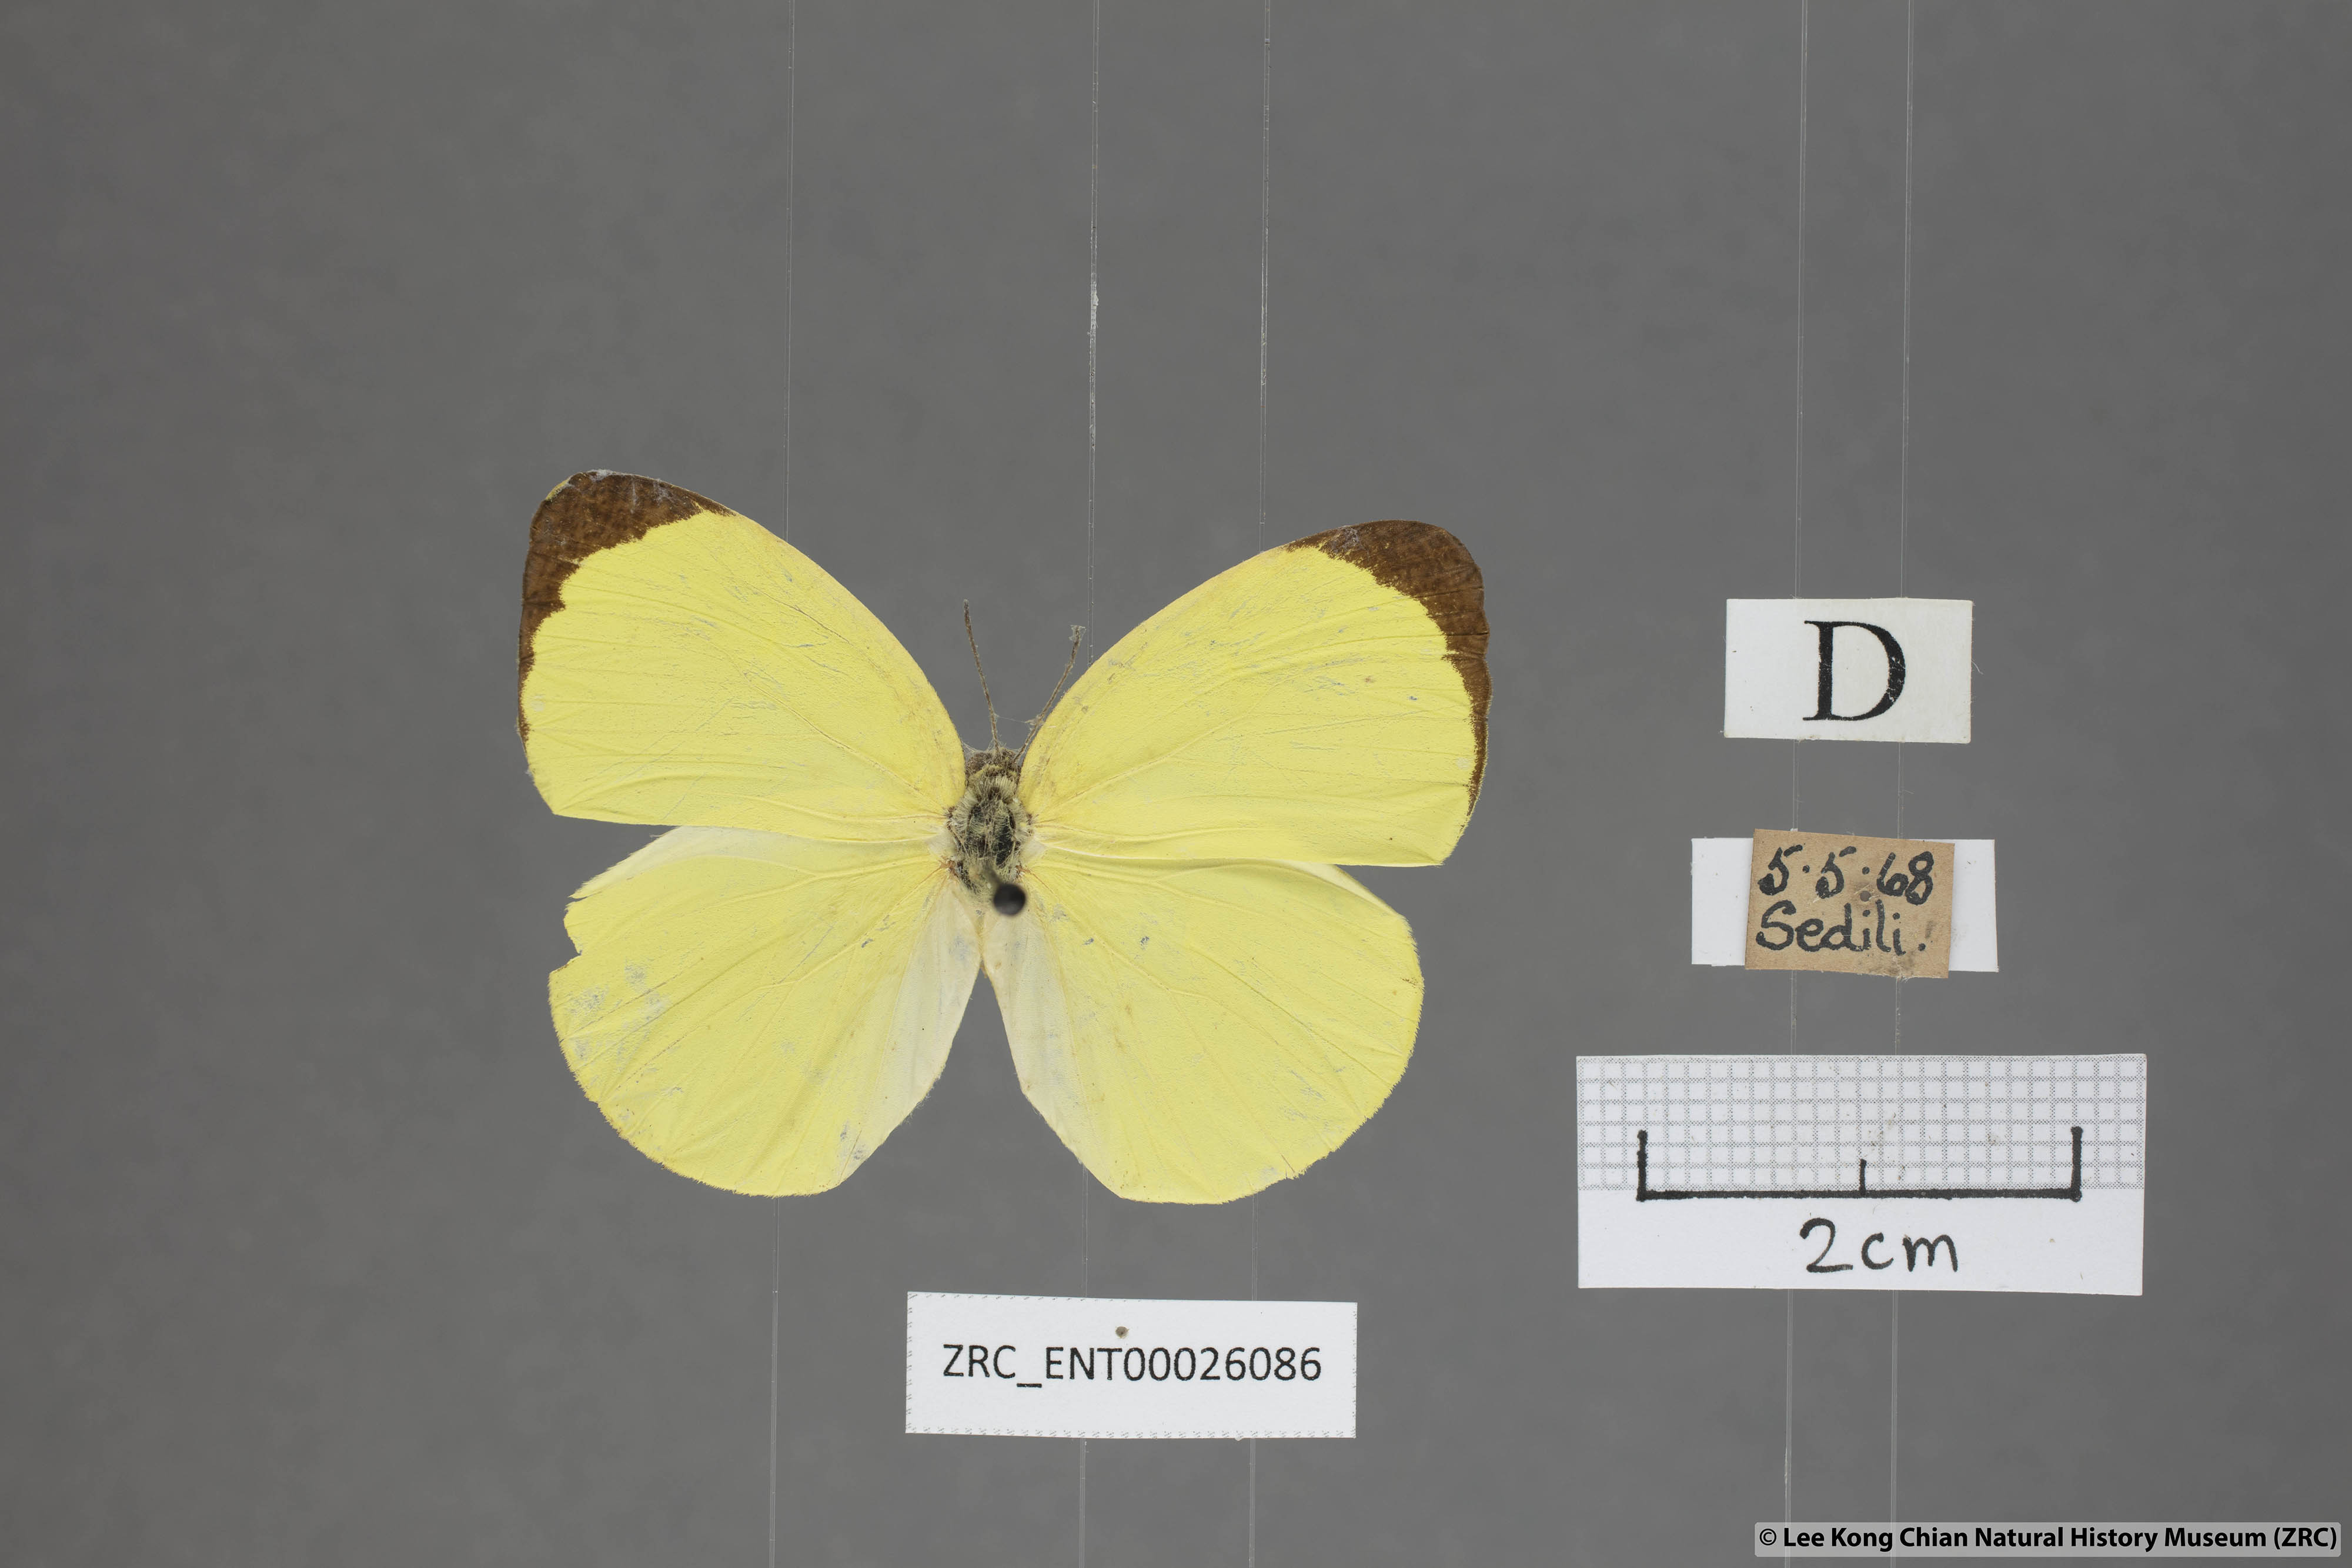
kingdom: Animalia
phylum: Arthropoda
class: Insecta
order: Lepidoptera
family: Pieridae
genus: Gandaca
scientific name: Gandaca harina
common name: Tree yellow
